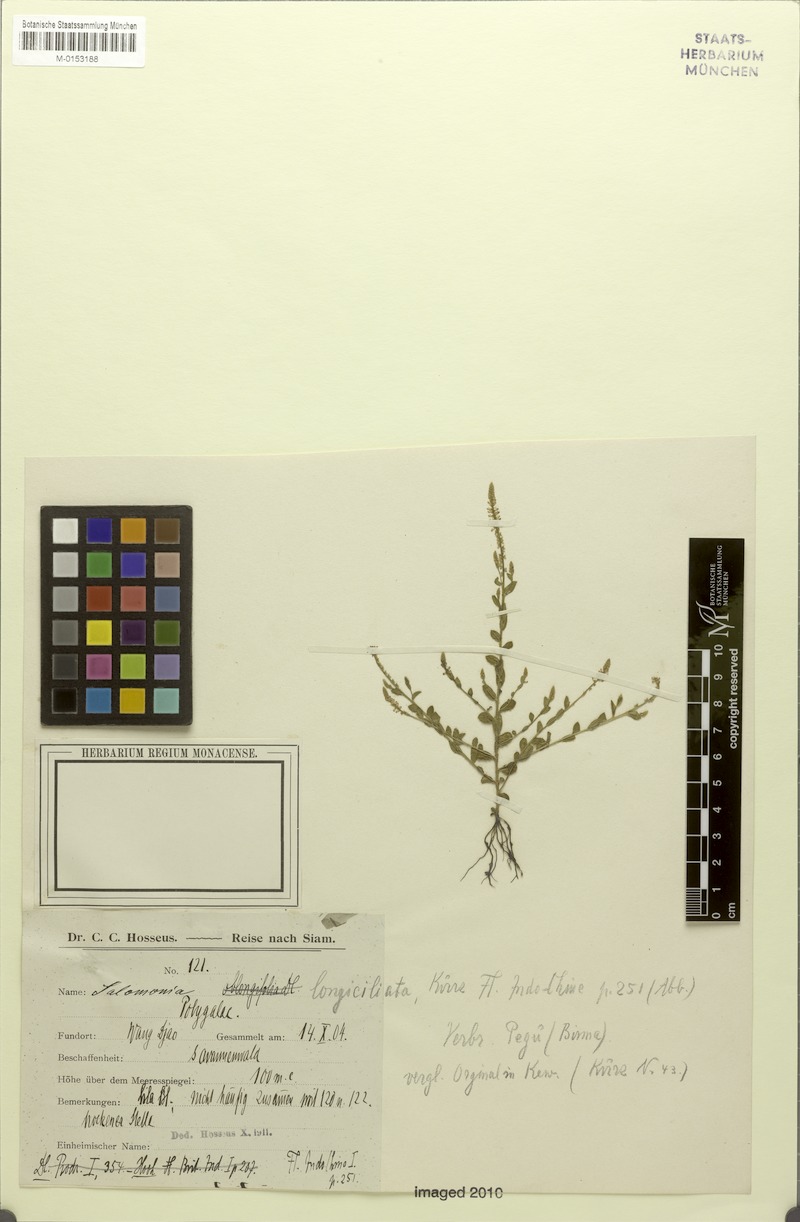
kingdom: Plantae
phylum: Tracheophyta
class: Magnoliopsida
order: Fabales
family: Polygalaceae
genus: Salomonia
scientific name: Salomonia longiciliata
